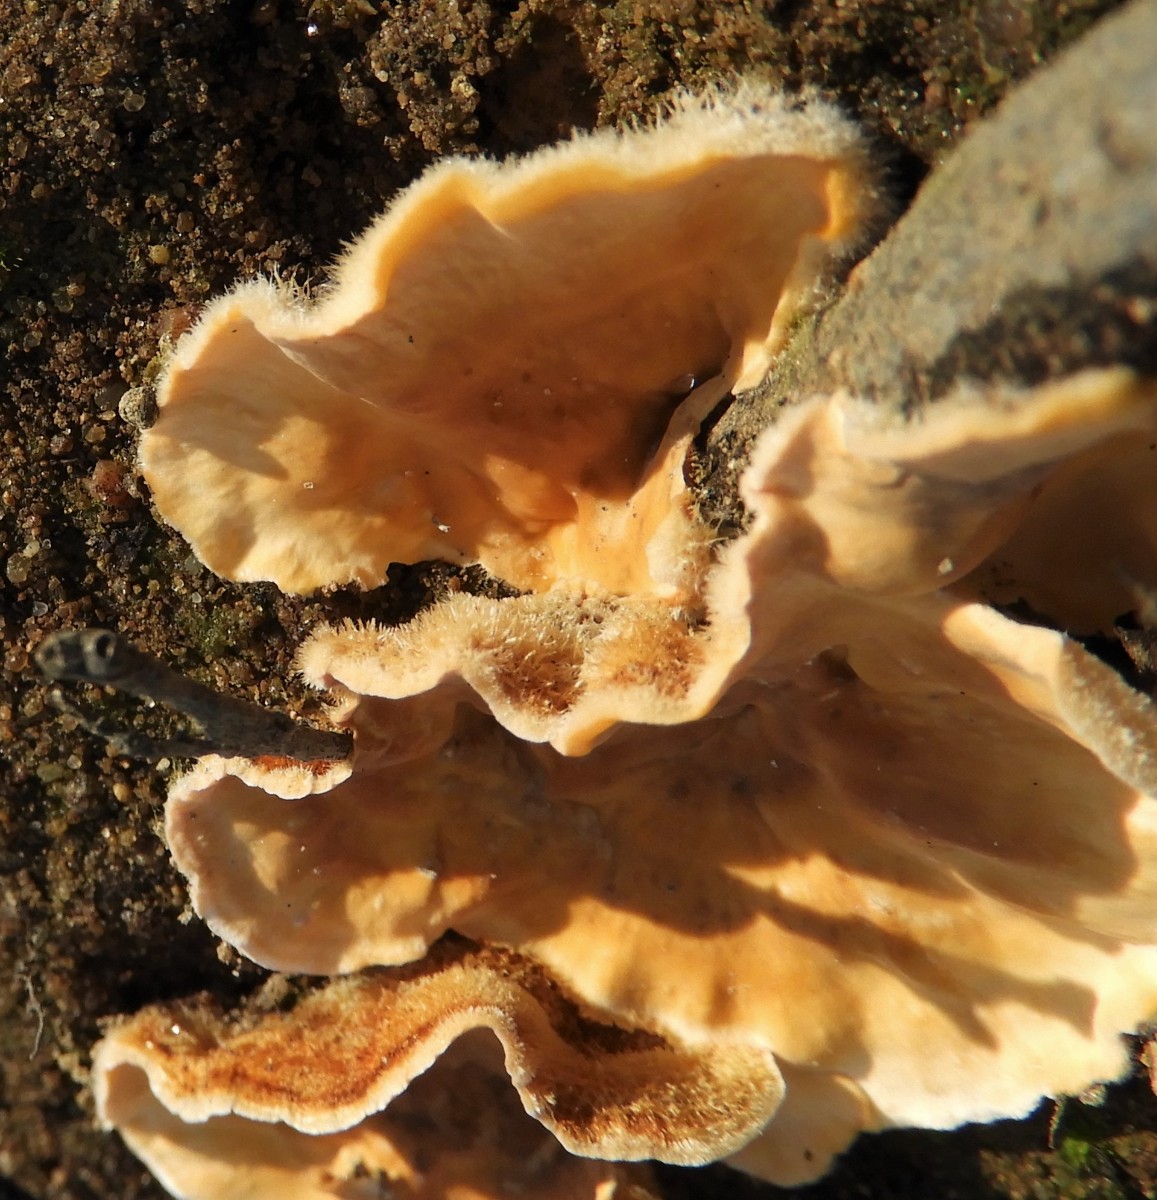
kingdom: Fungi
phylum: Basidiomycota
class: Agaricomycetes
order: Russulales
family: Stereaceae
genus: Stereum
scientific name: Stereum hirsutum
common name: håret lædersvamp
